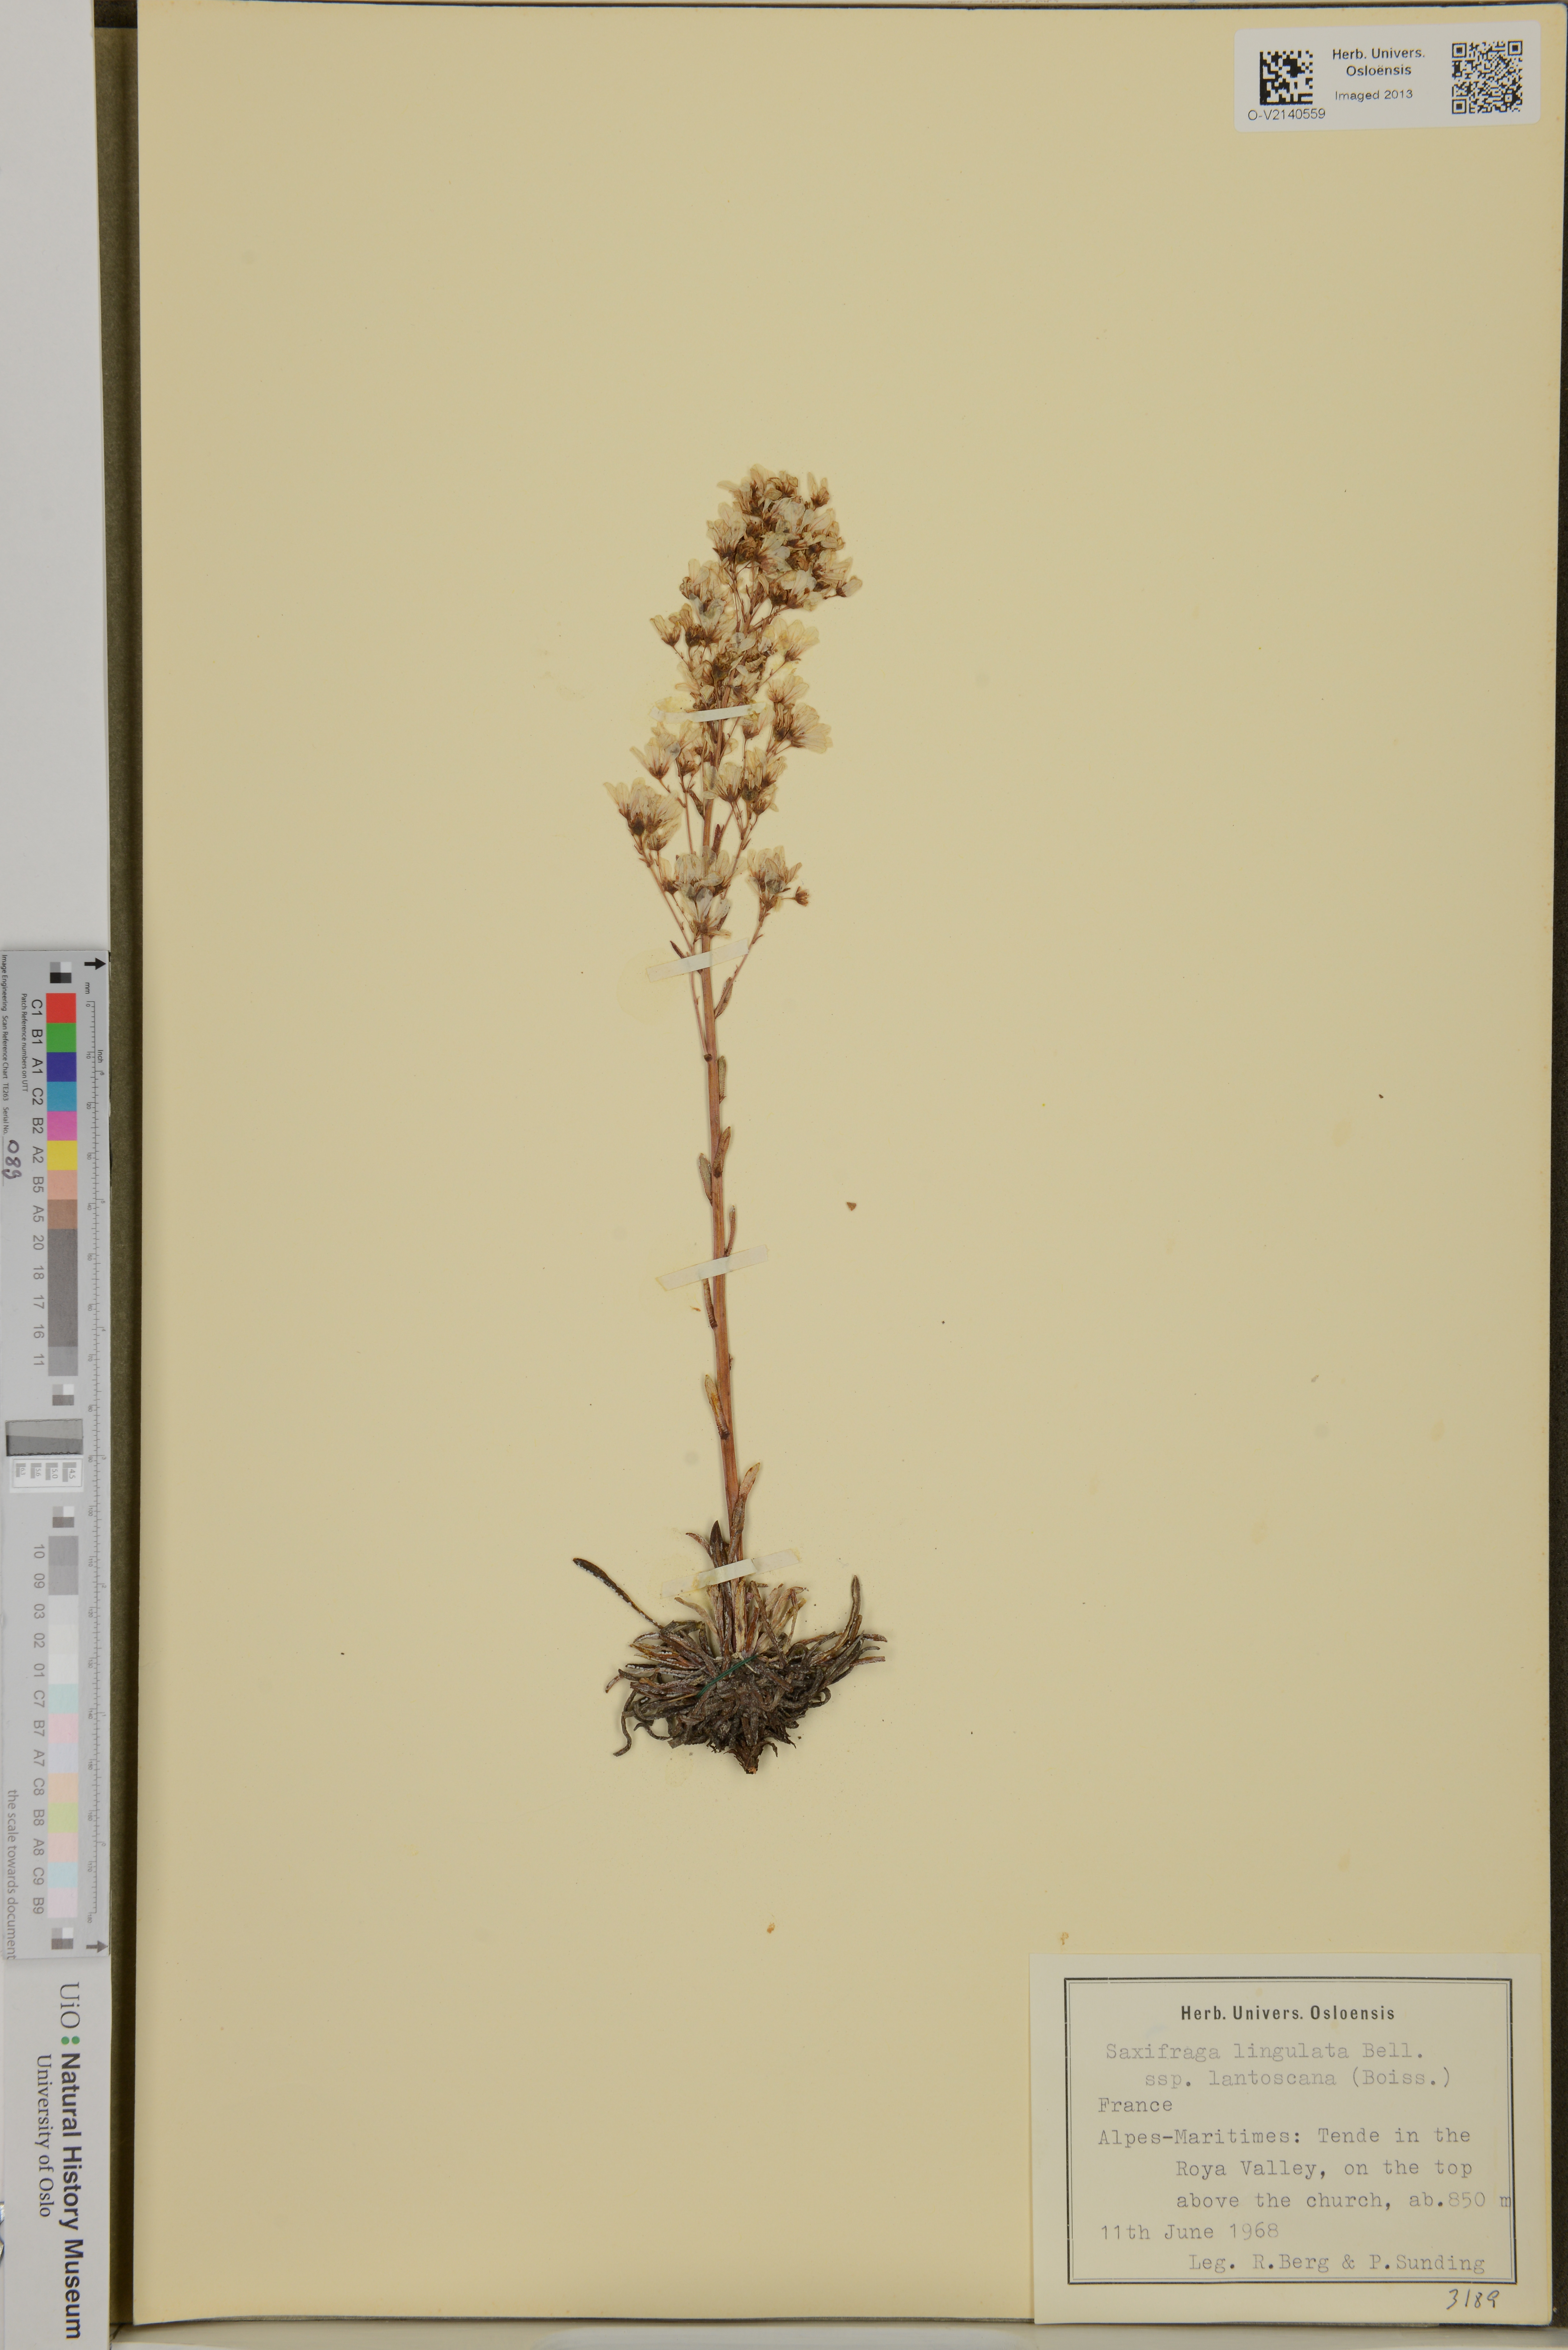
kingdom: Plantae
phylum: Tracheophyta
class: Magnoliopsida
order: Saxifragales
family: Saxifragaceae
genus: Saxifraga
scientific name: Saxifraga
